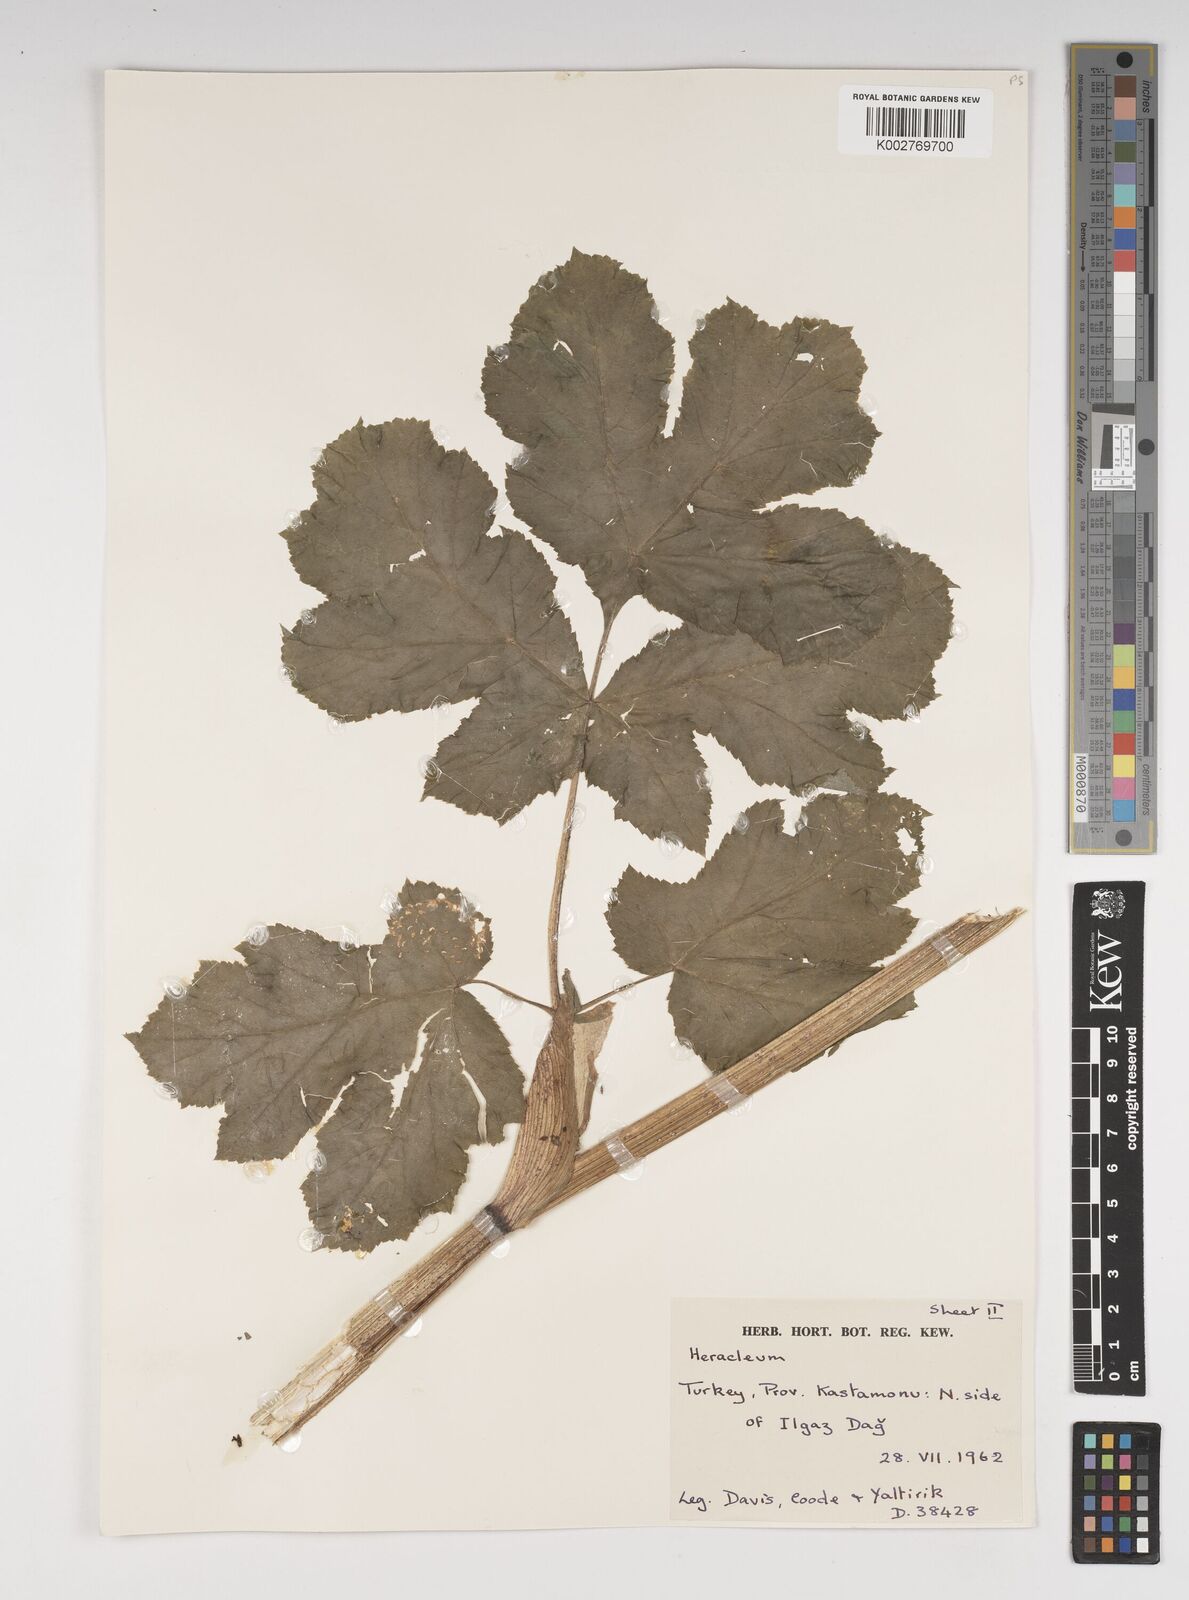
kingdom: Plantae
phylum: Tracheophyta
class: Magnoliopsida
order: Apiales
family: Apiaceae
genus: Heracleum
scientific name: Heracleum paphlagonicum
